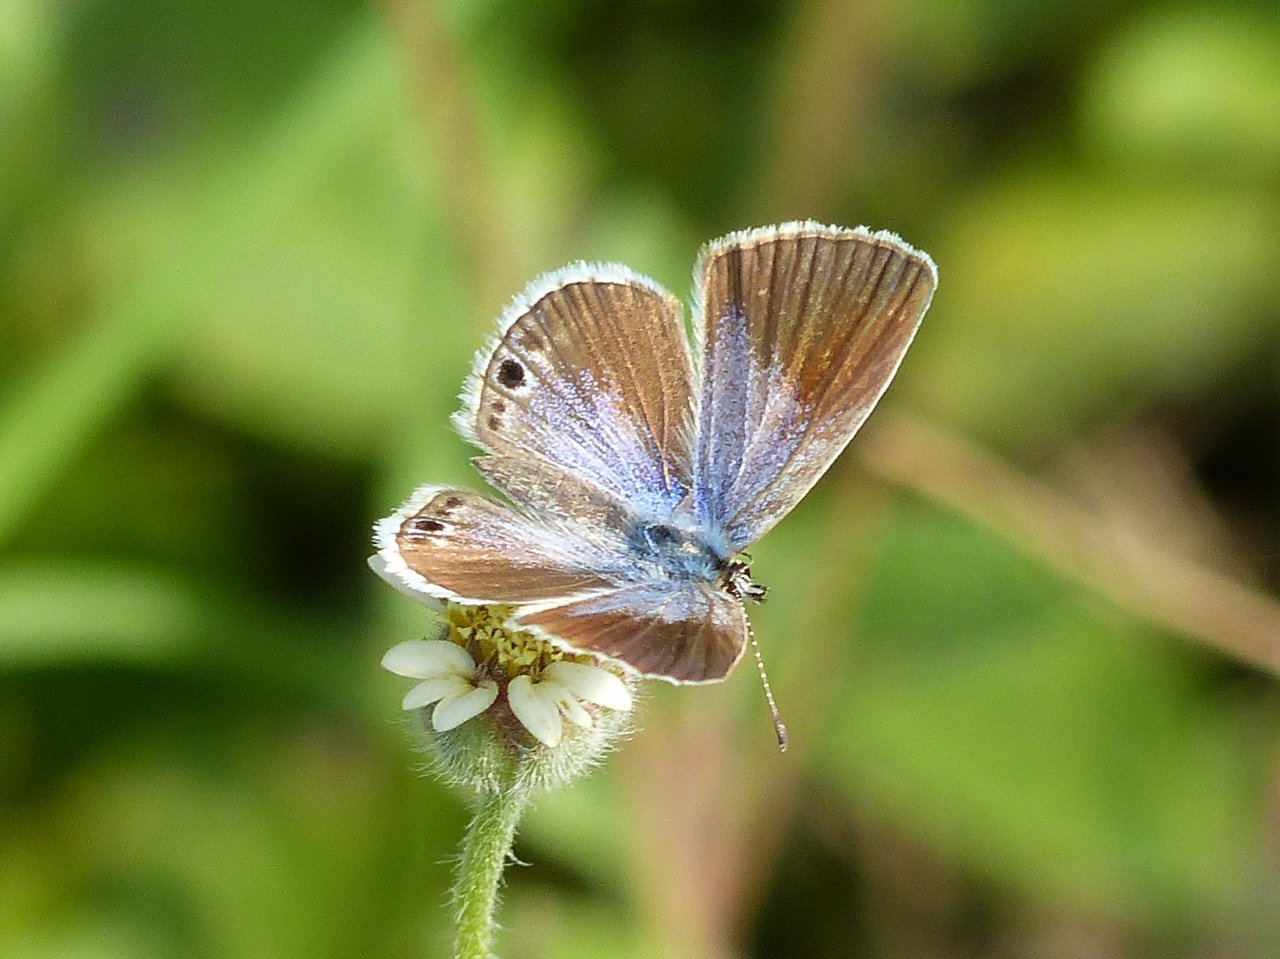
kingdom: Animalia
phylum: Arthropoda
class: Insecta
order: Lepidoptera
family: Lycaenidae
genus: Echinargus
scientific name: Echinargus isola
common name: Reakirt's Blue
